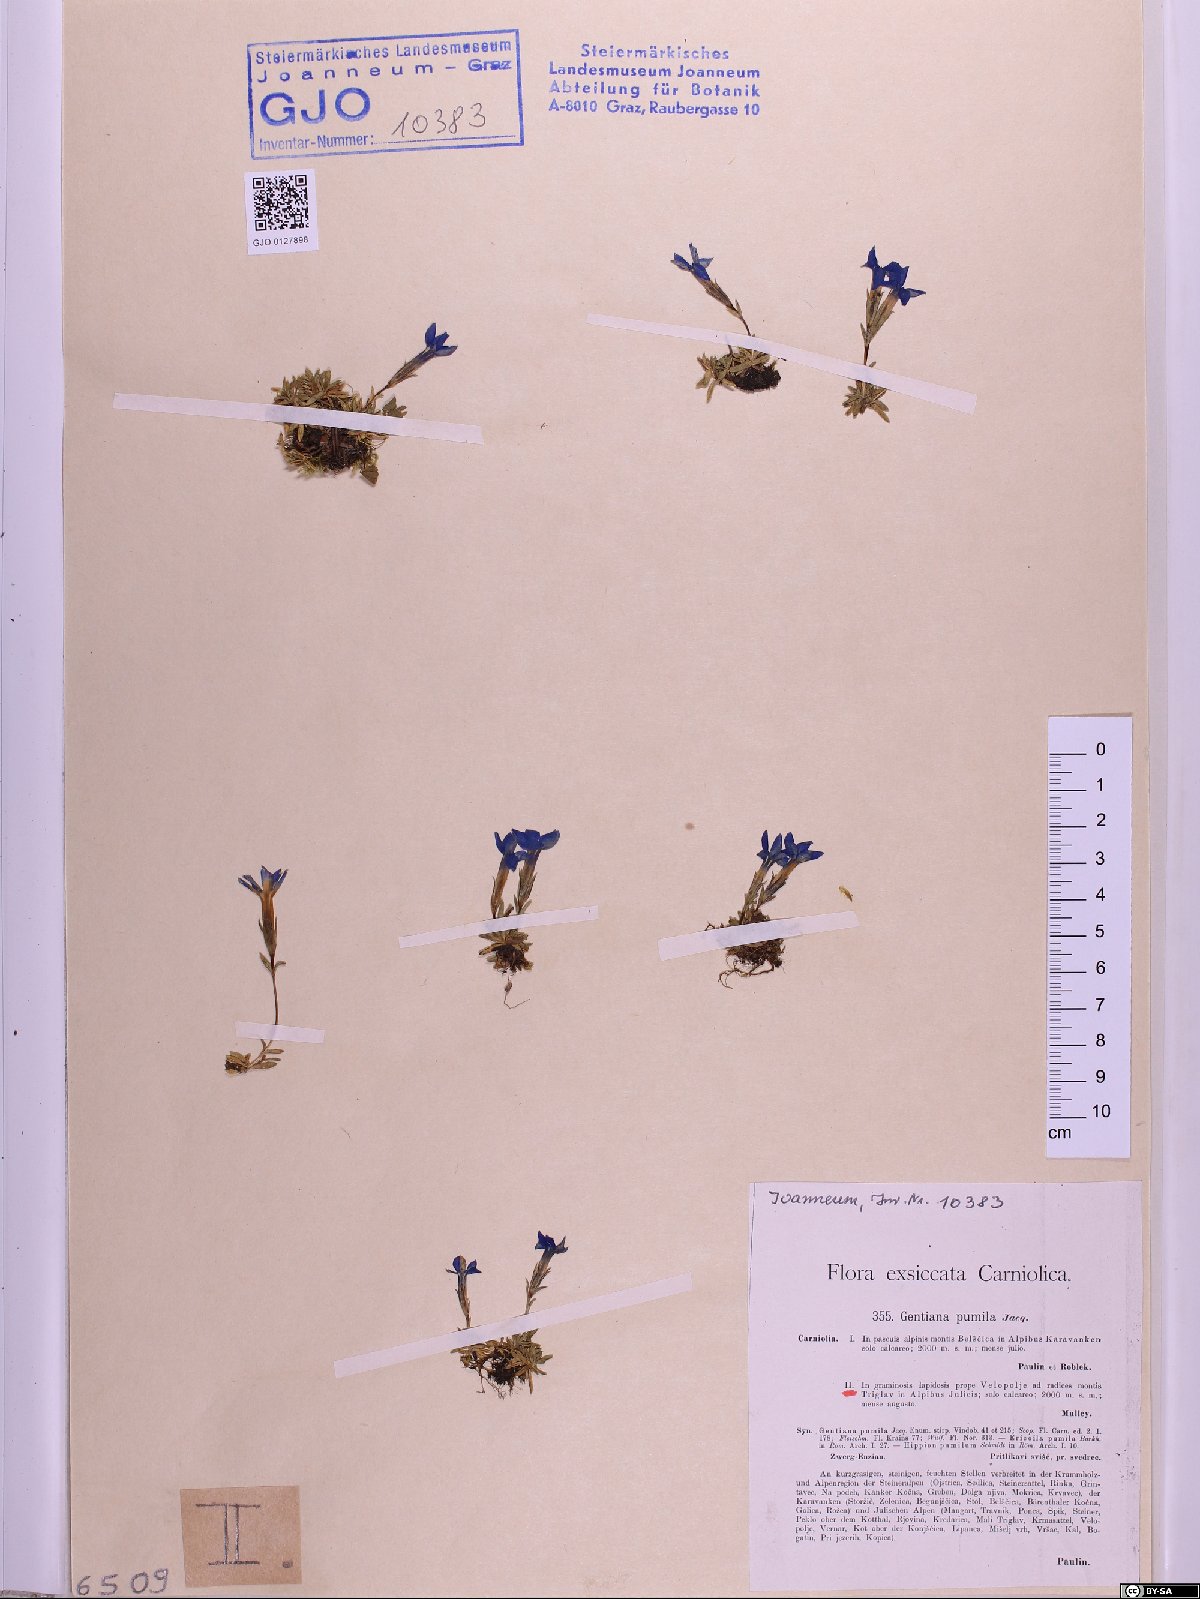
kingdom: Plantae
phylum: Tracheophyta
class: Magnoliopsida
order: Gentianales
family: Gentianaceae
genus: Gentiana
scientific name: Gentiana pumila
